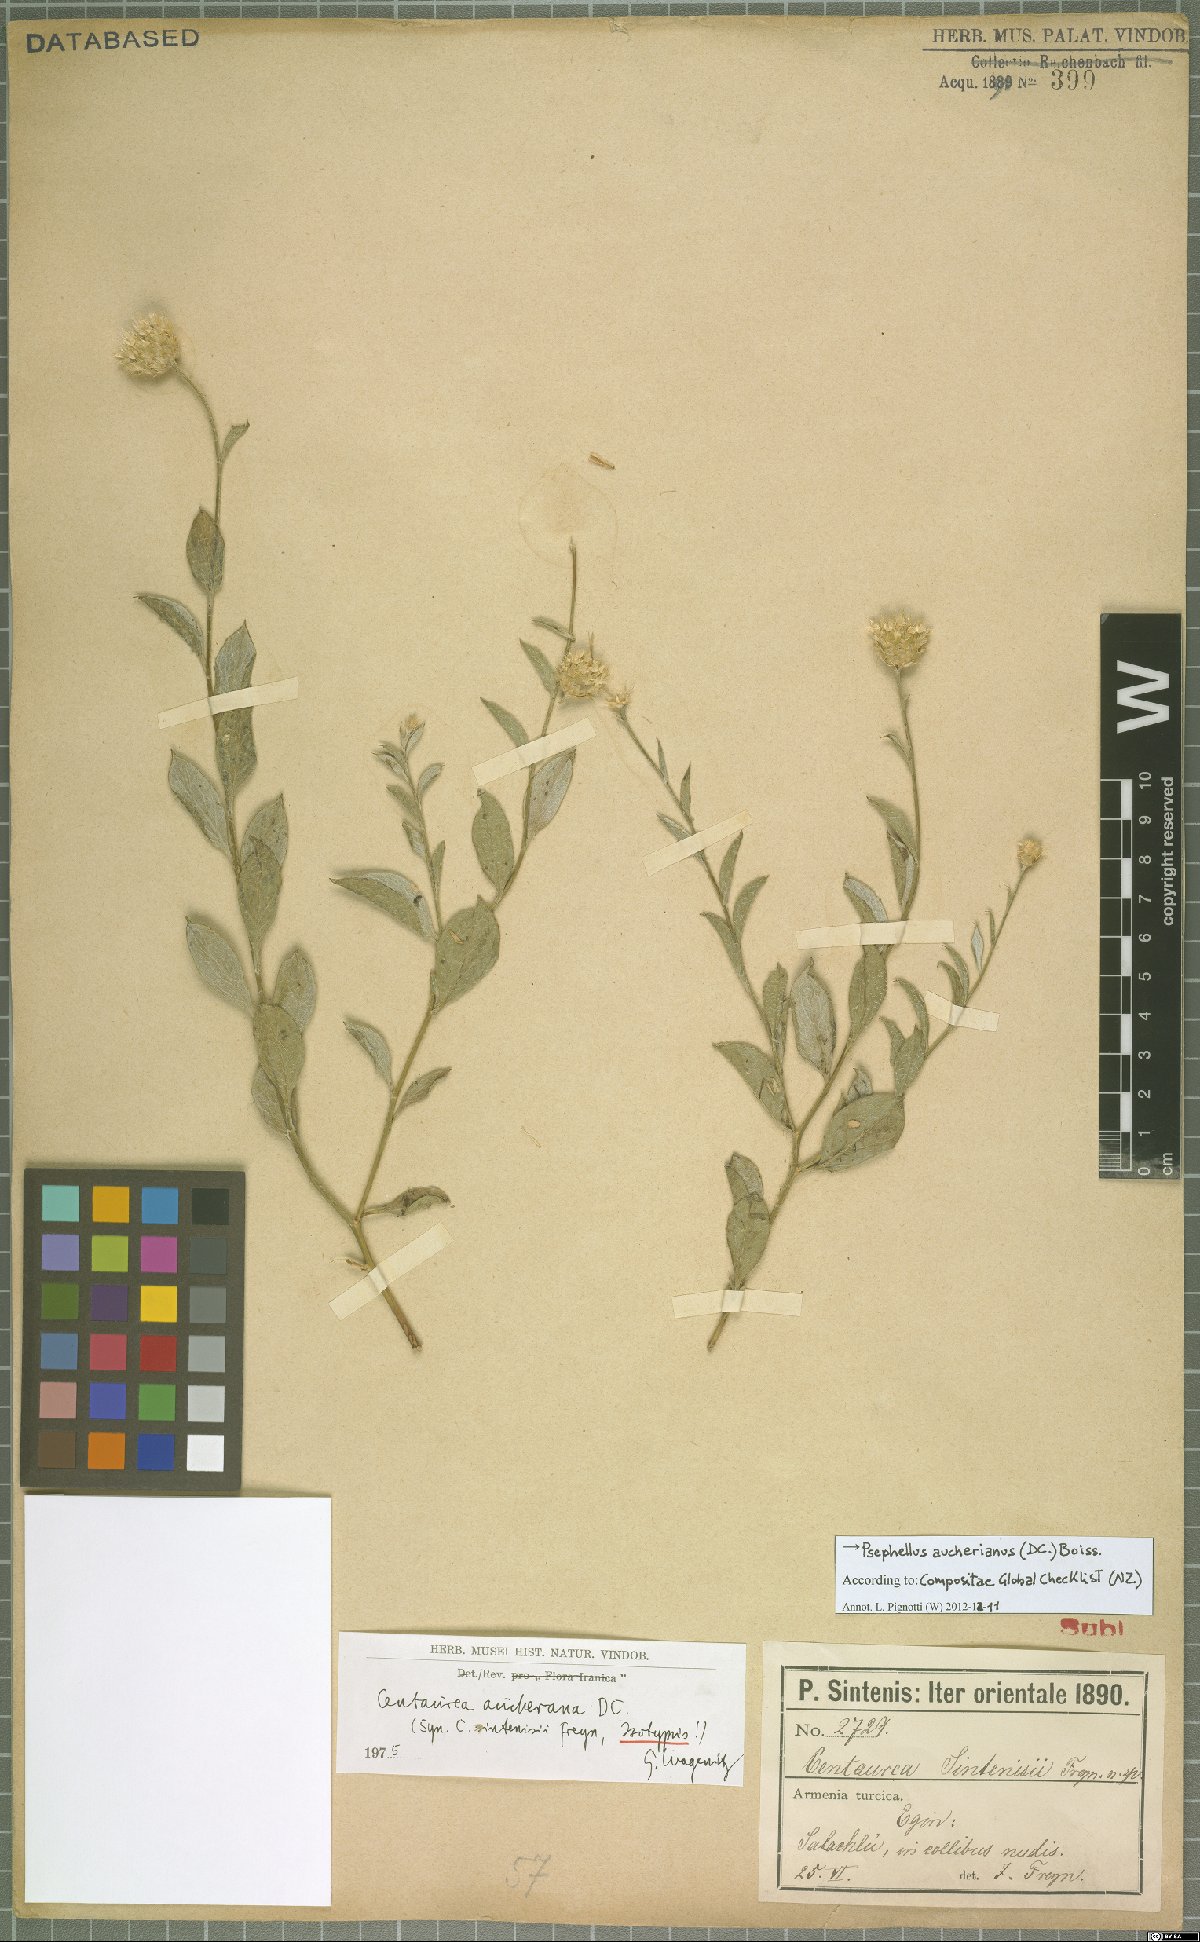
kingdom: Plantae
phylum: Tracheophyta
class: Magnoliopsida
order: Asterales
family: Asteraceae
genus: Centaurea
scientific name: Centaurea aucheri
